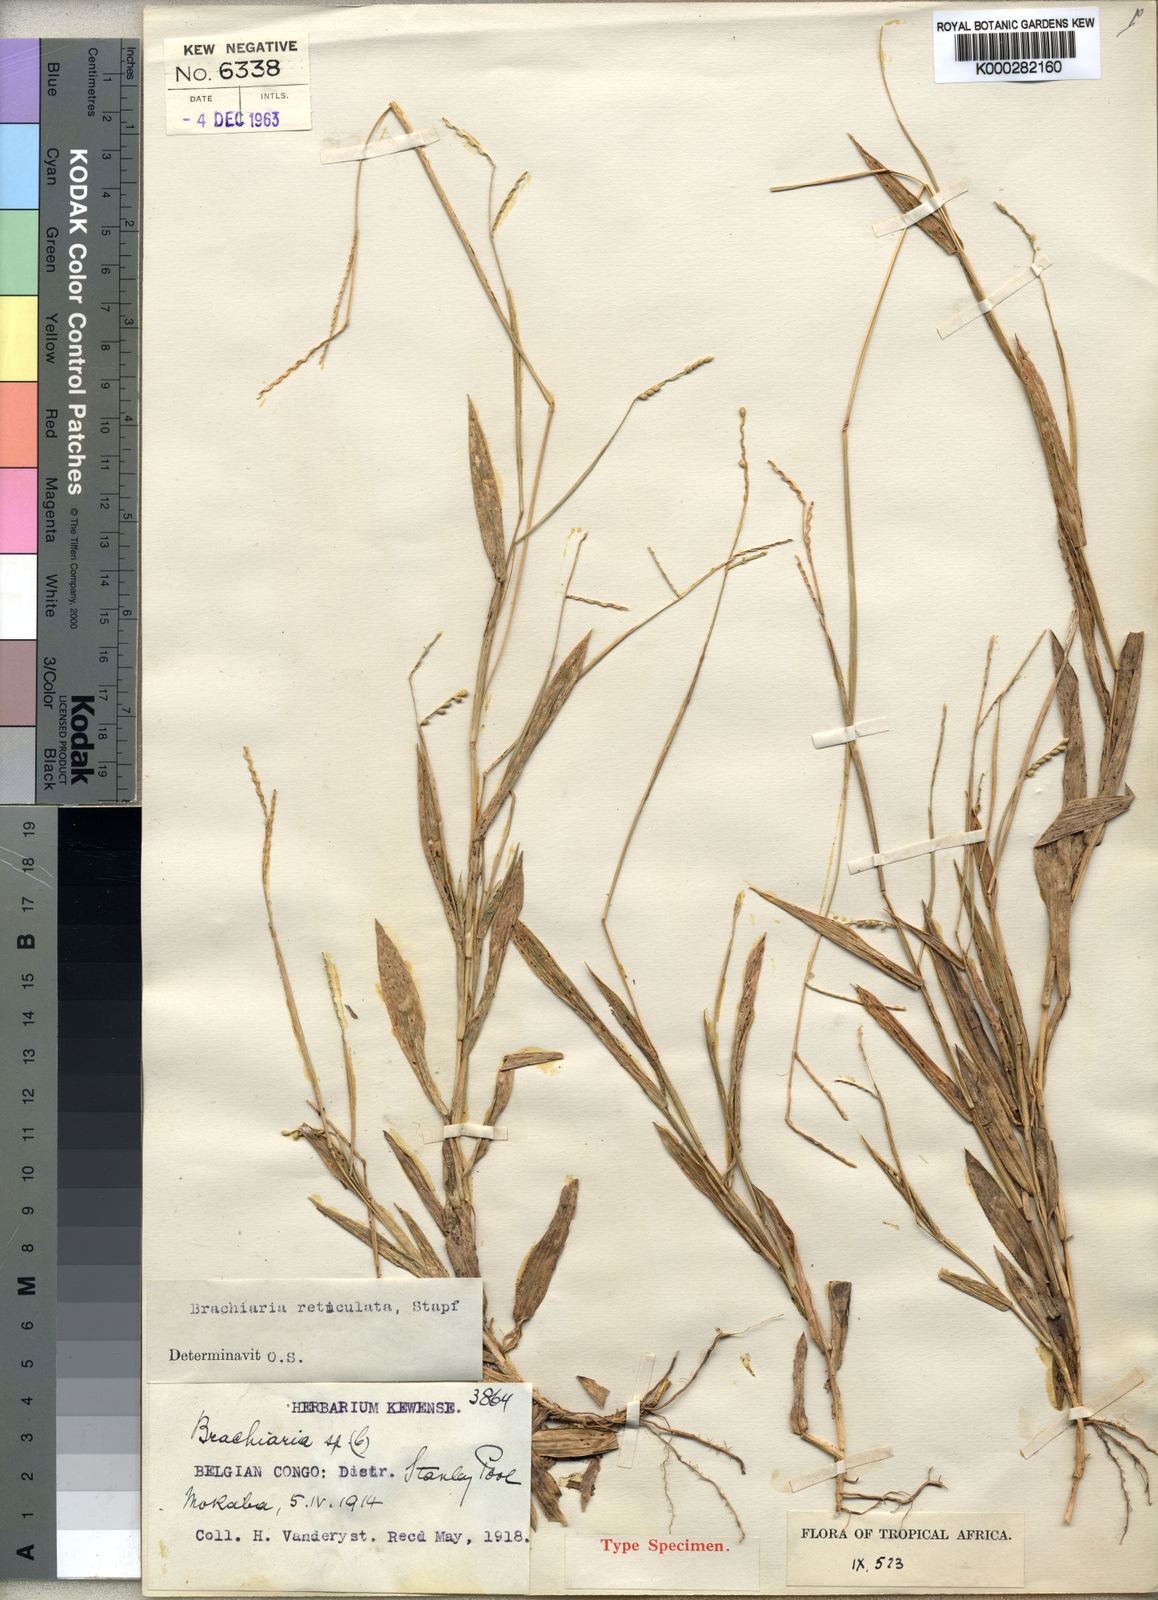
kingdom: Plantae
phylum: Tracheophyta
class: Liliopsida
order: Poales
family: Poaceae
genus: Urochloa
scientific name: Urochloa reticulata
